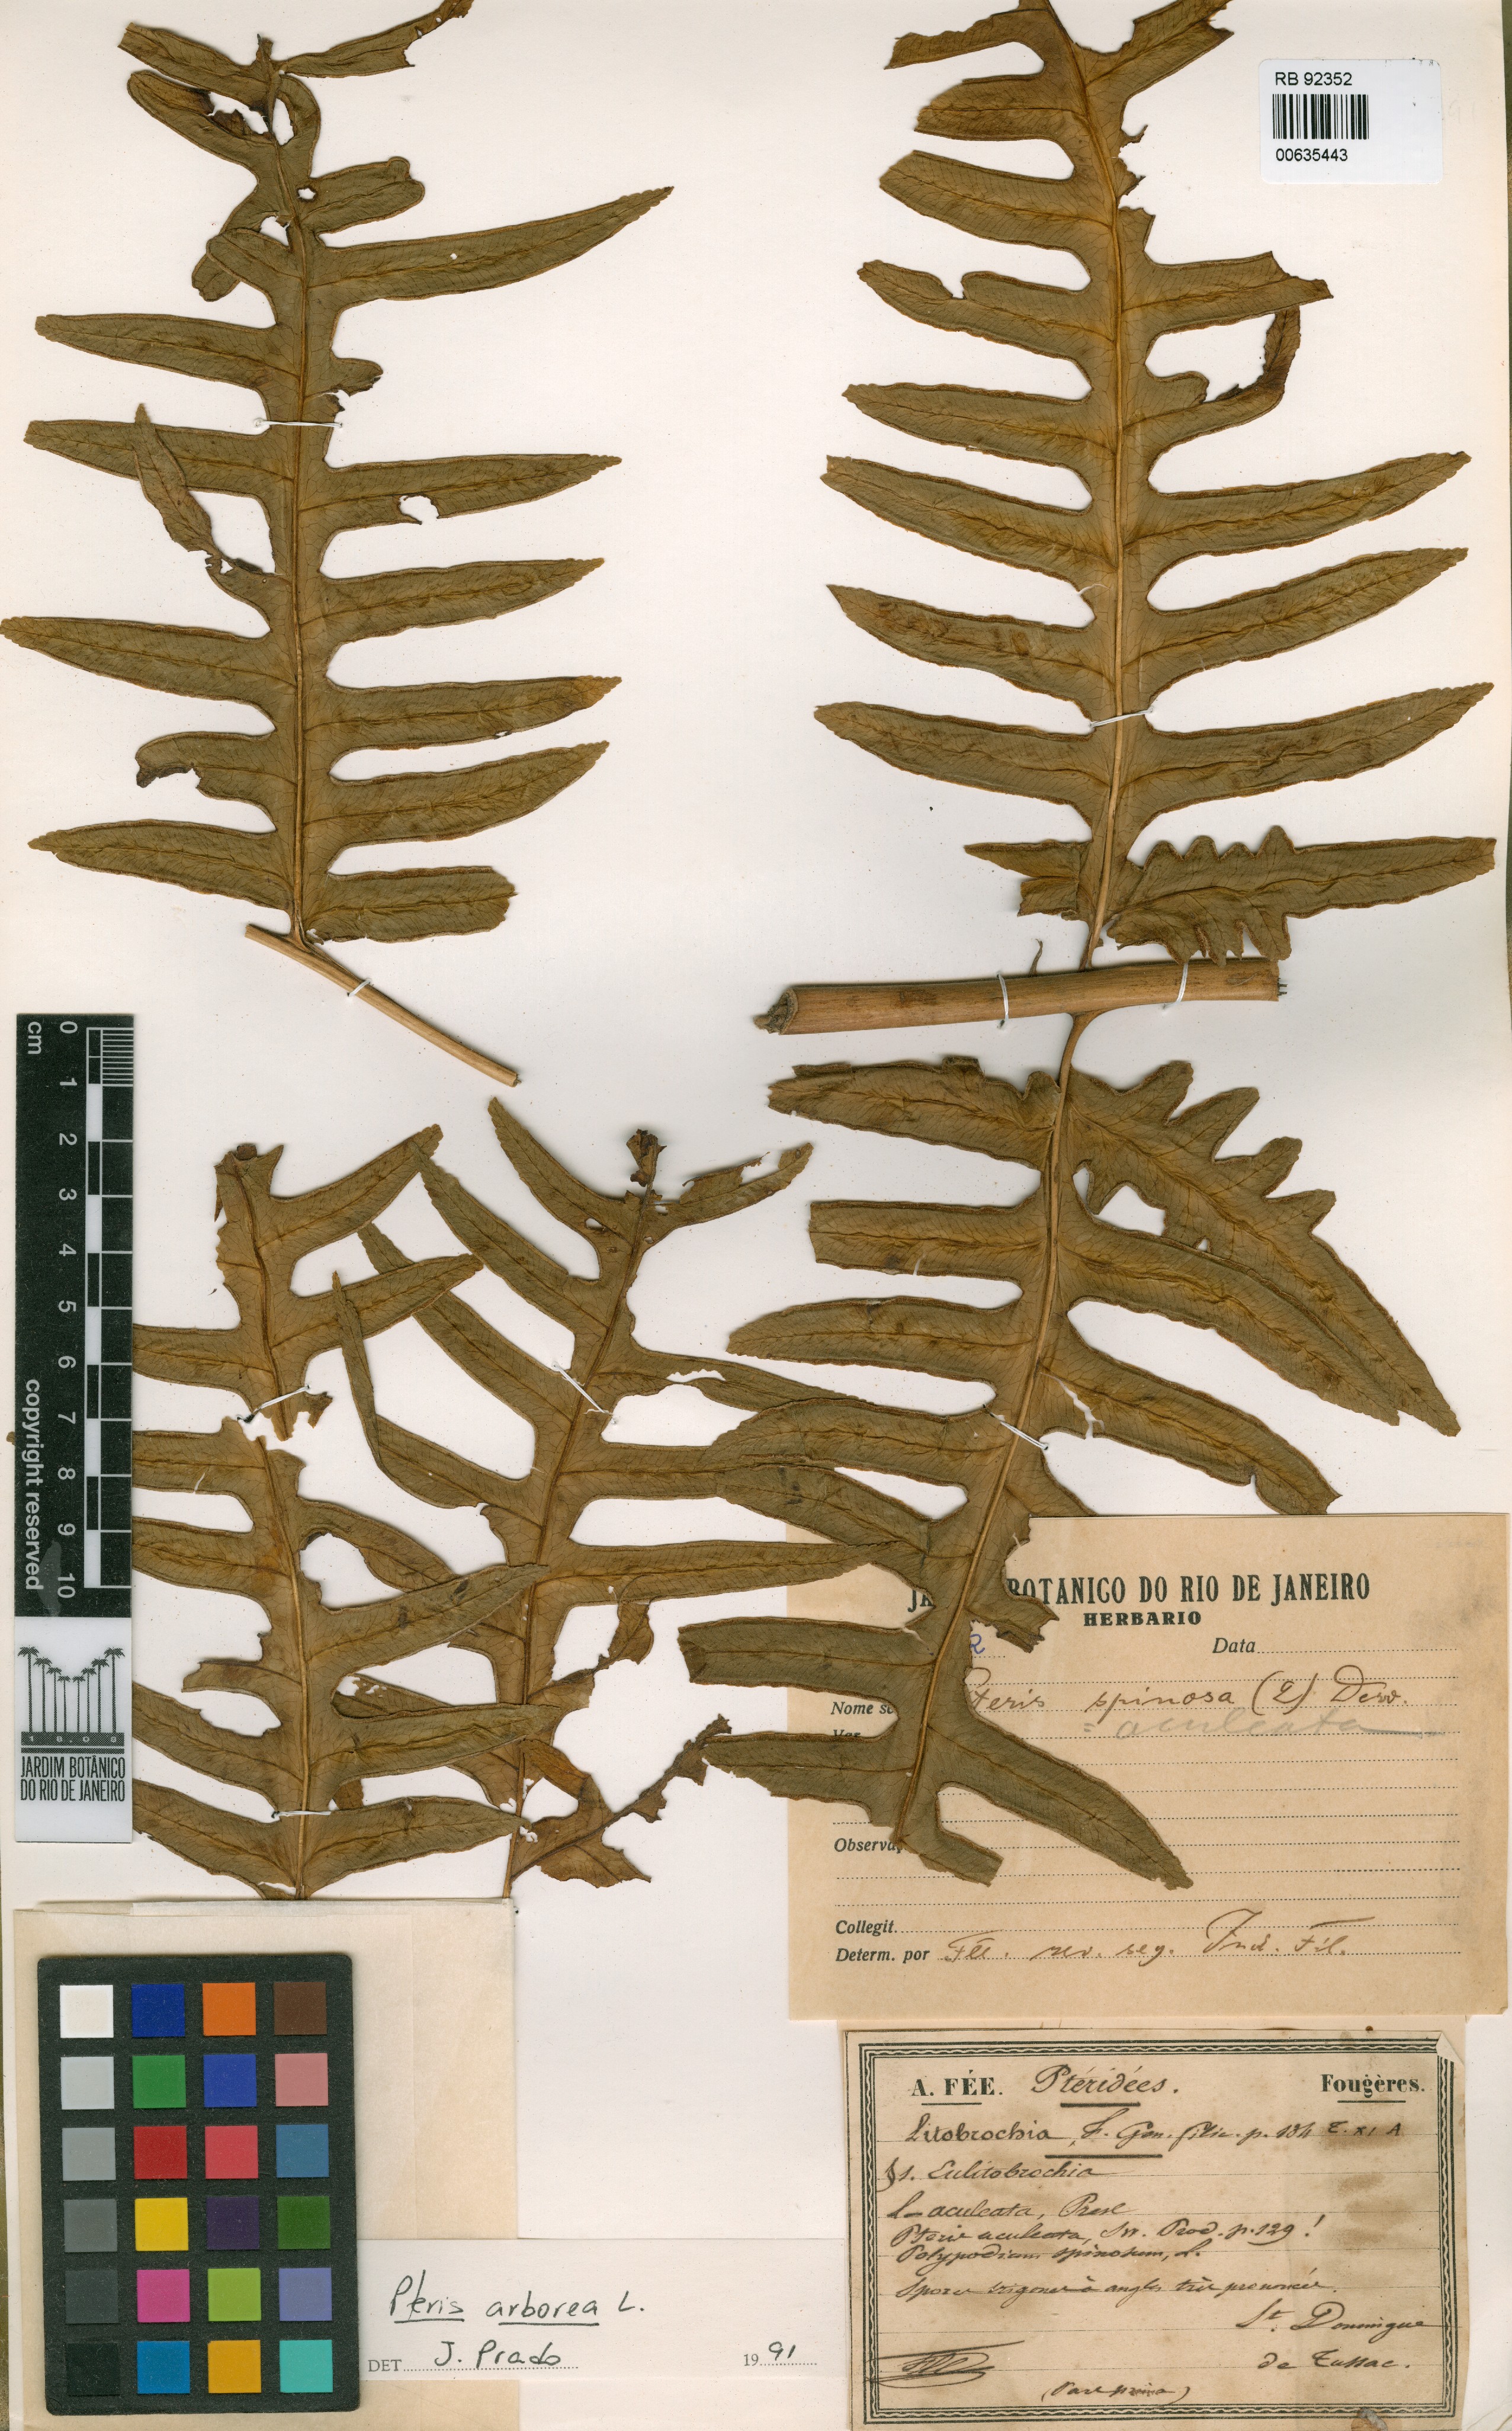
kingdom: Plantae
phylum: Tracheophyta
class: Polypodiopsida
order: Polypodiales
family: Pteridaceae
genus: Pteris
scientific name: Pteris arborea
